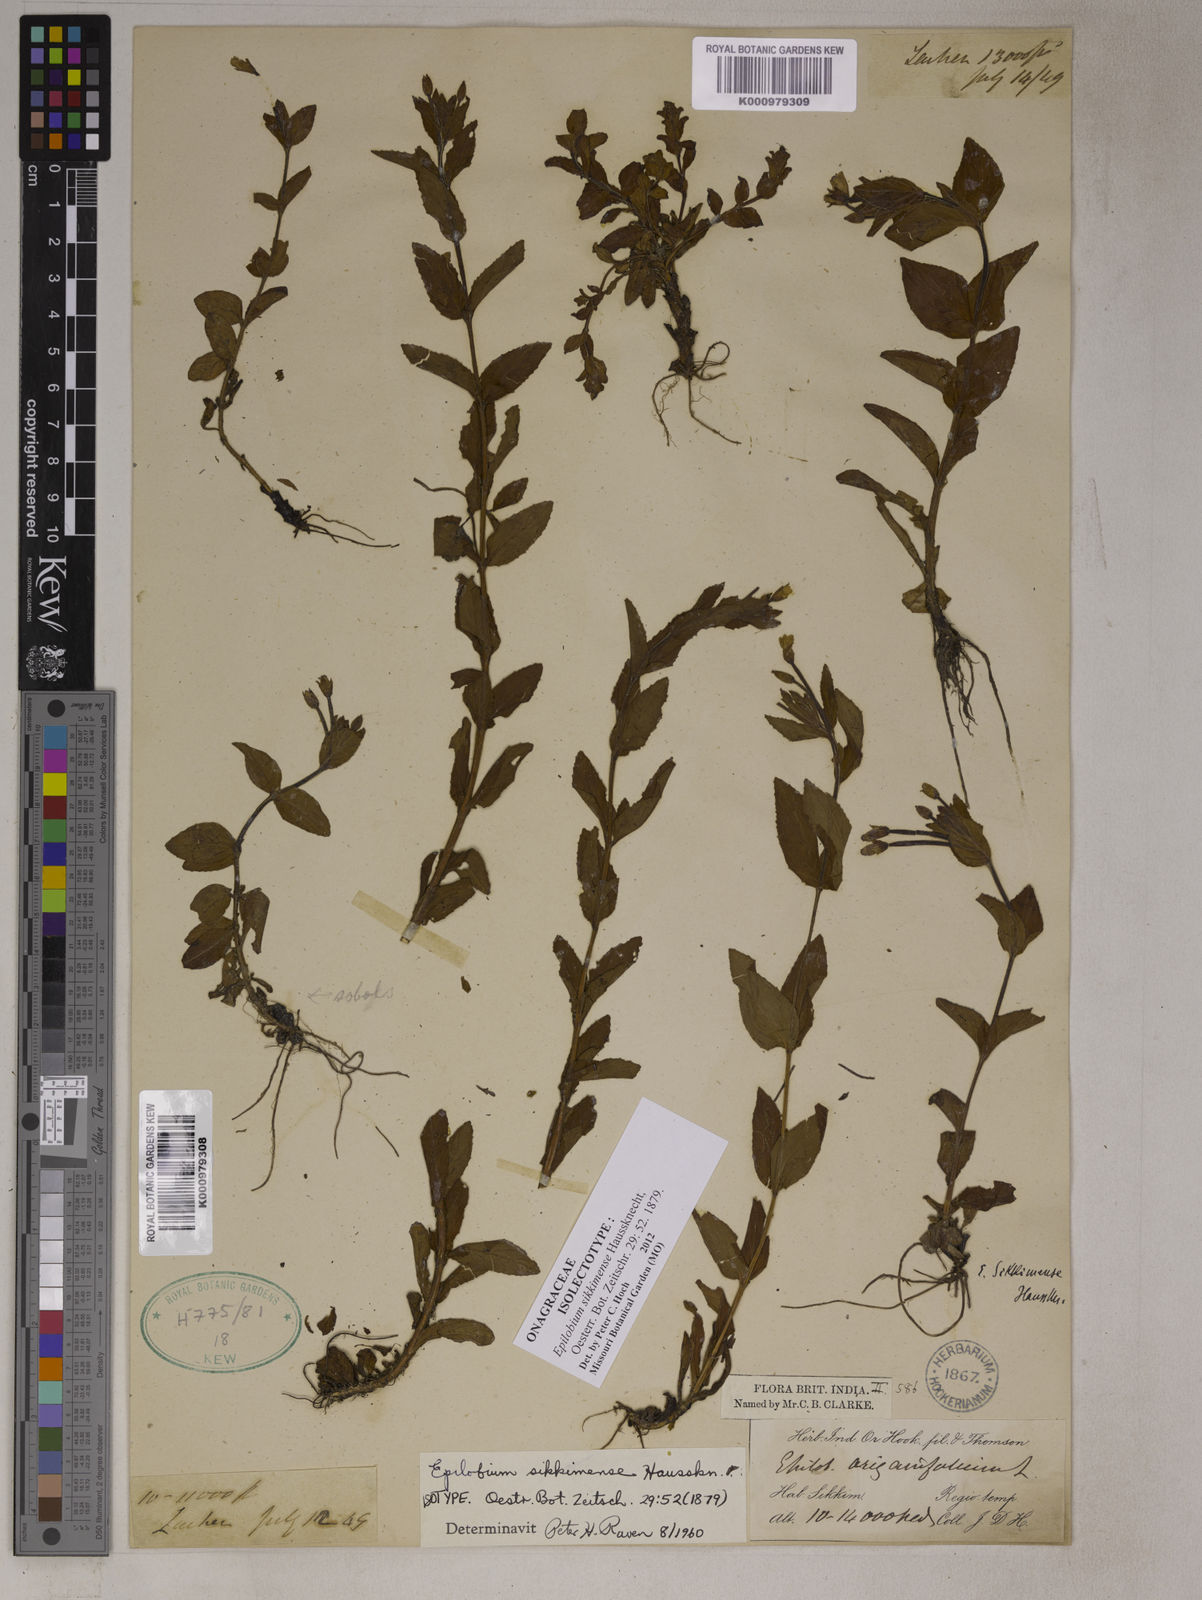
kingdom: Plantae
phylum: Tracheophyta
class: Magnoliopsida
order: Myrtales
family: Onagraceae
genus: Epilobium
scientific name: Epilobium sikkimense
